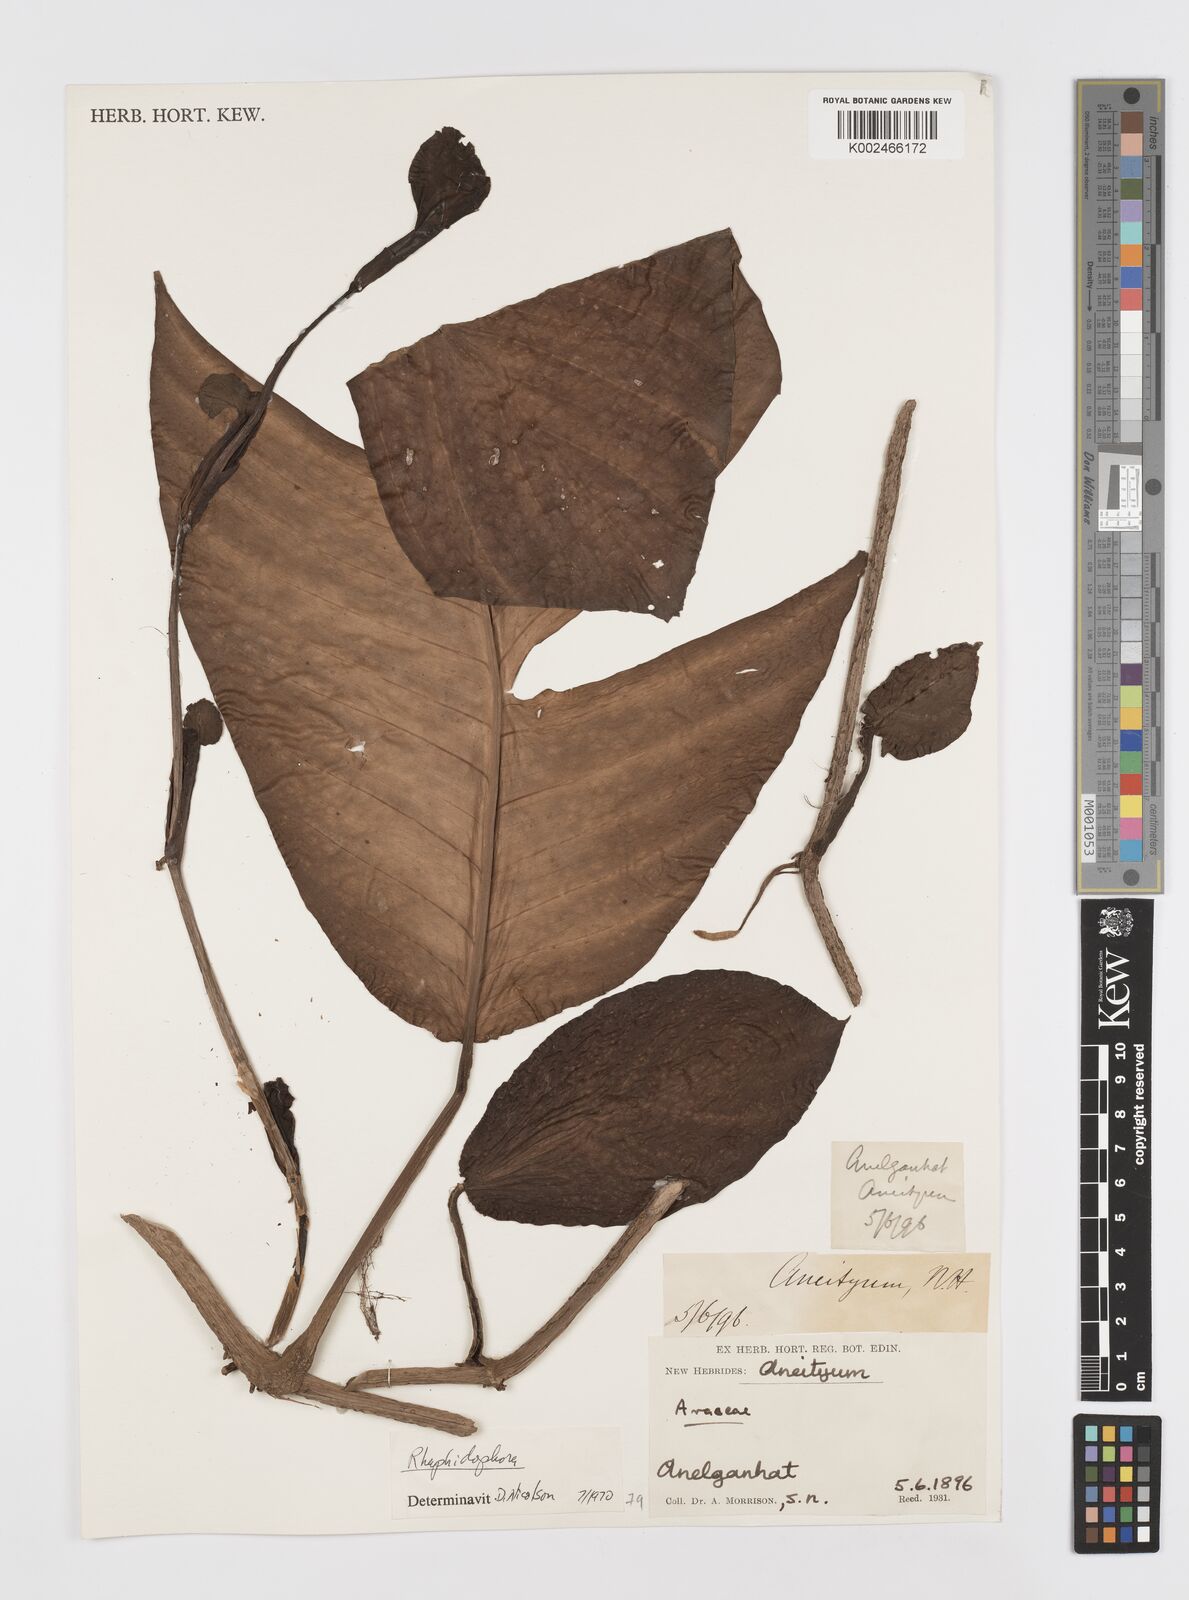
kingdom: Plantae
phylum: Tracheophyta
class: Liliopsida
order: Alismatales
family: Araceae
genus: Rhaphidophora
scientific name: Rhaphidophora korthalsii
